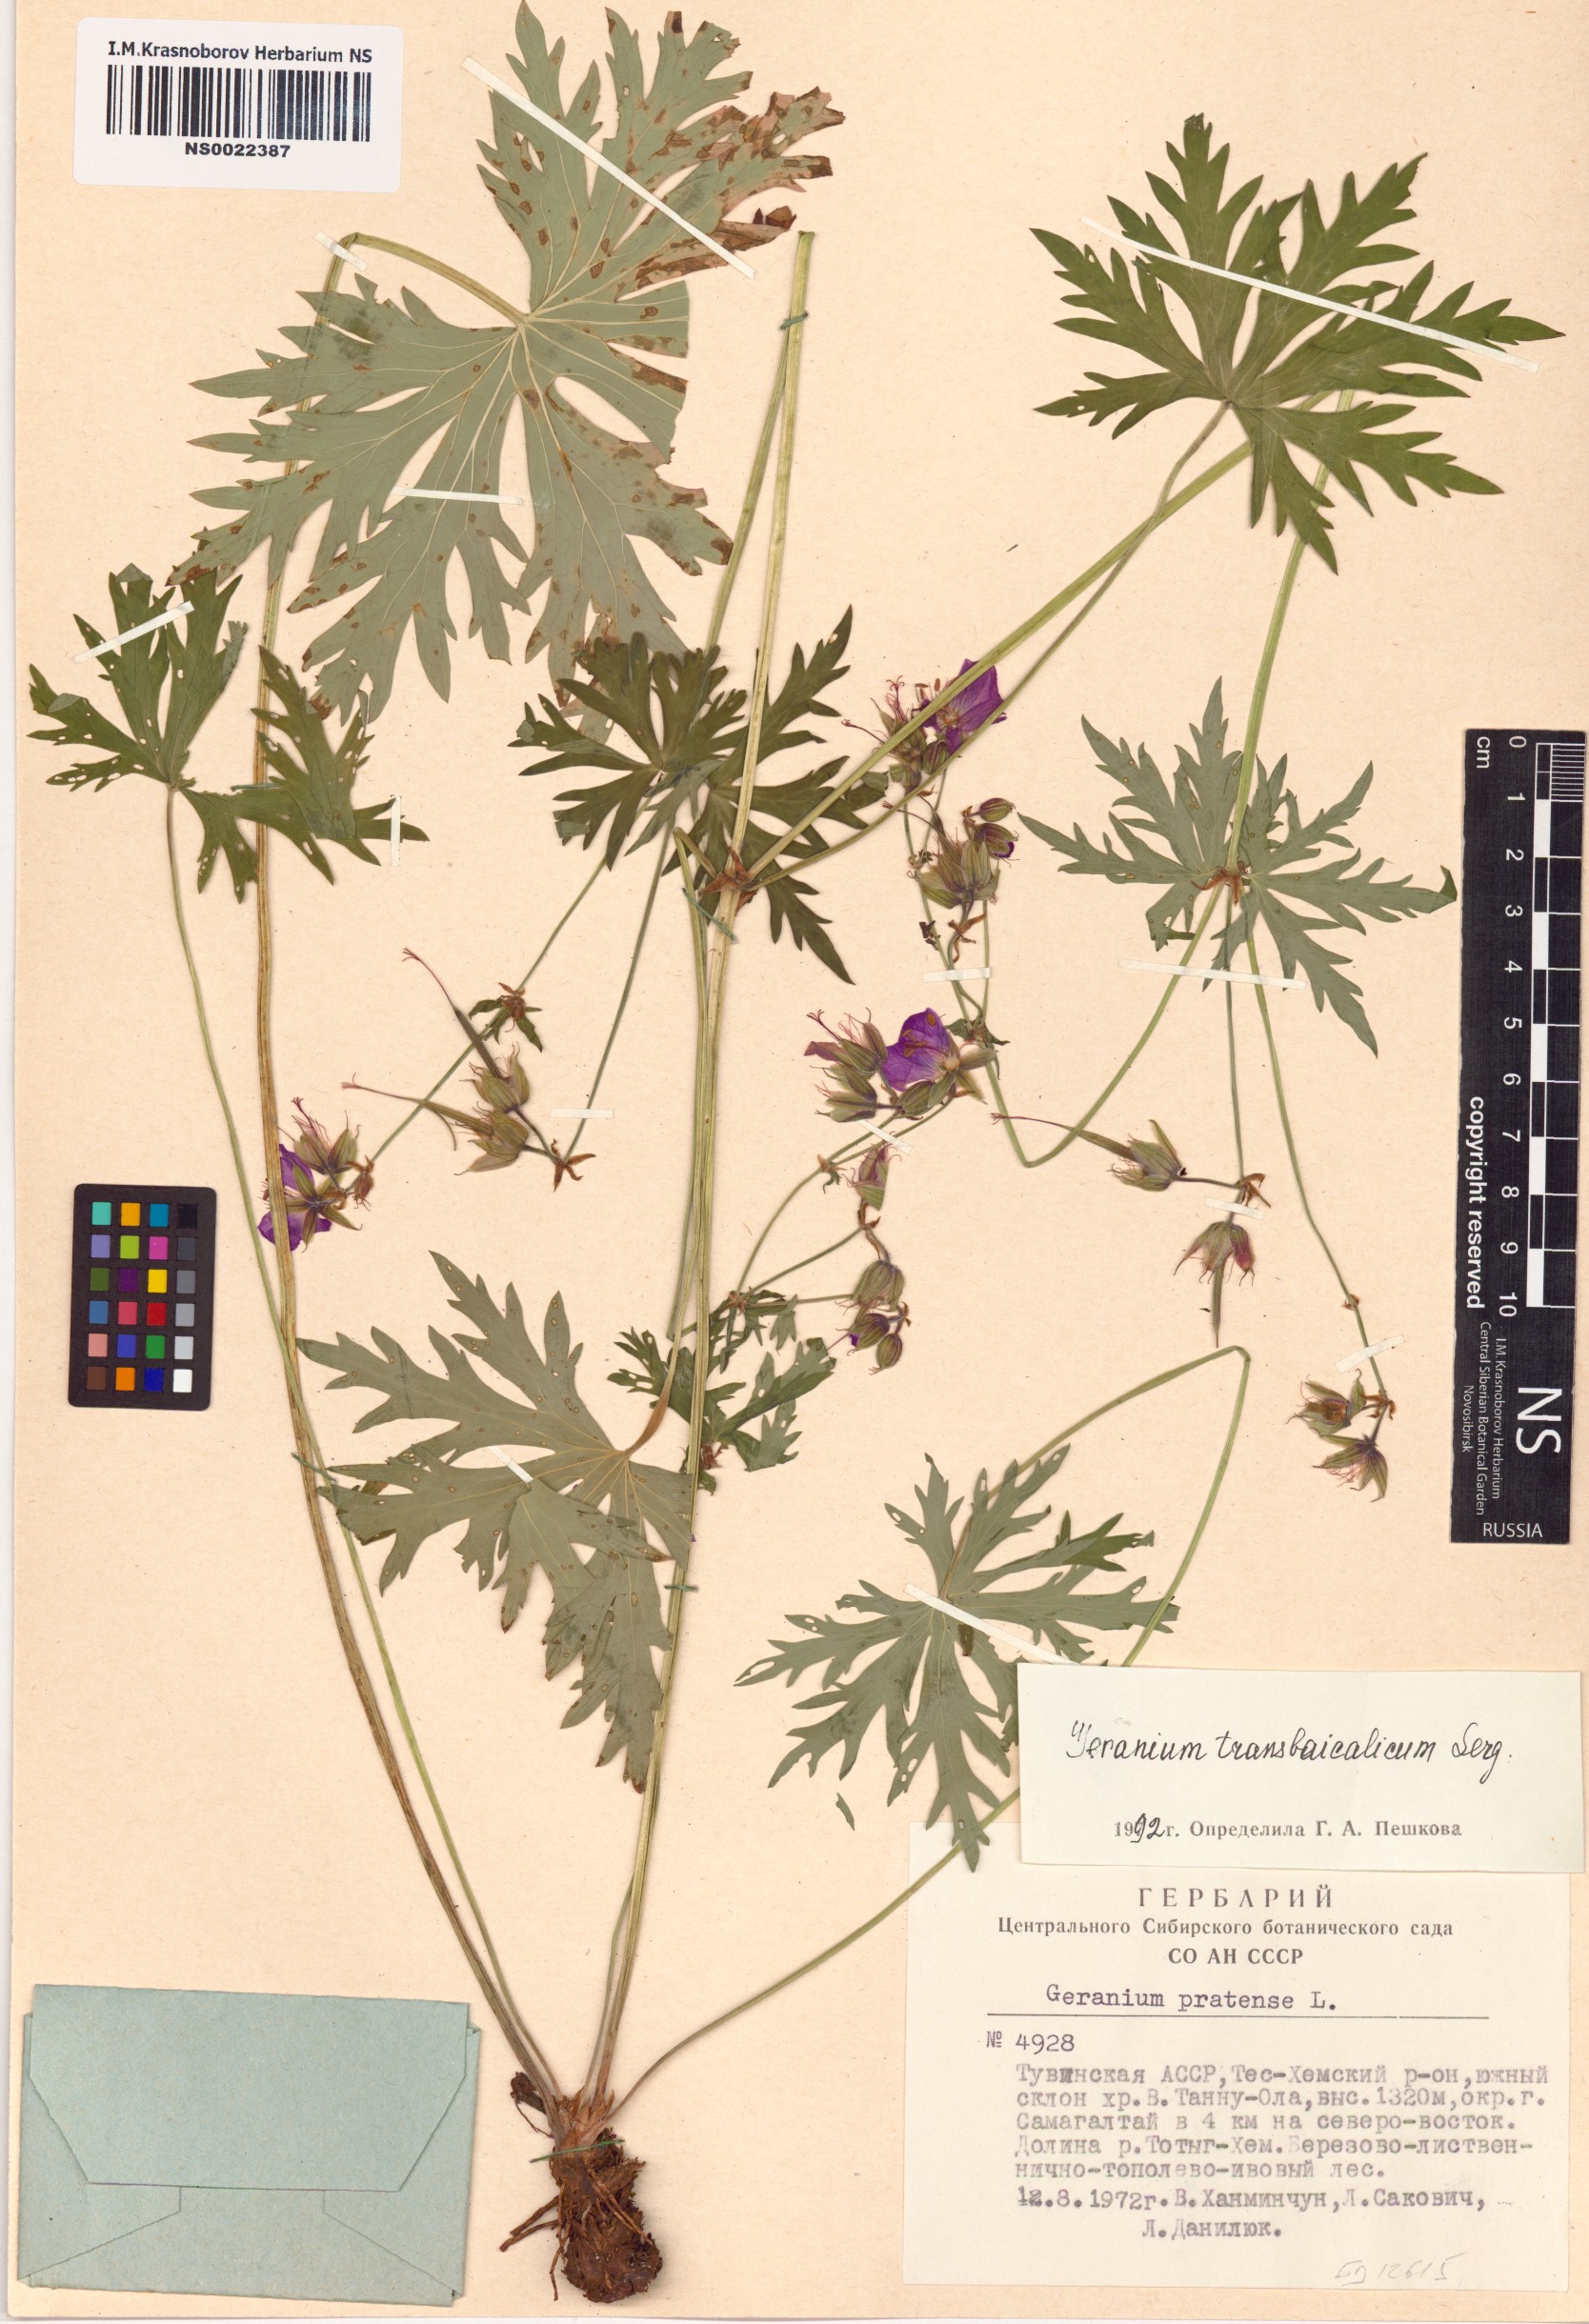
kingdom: Plantae
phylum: Tracheophyta
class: Magnoliopsida
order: Geraniales
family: Geraniaceae
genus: Geranium
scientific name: Geranium pratense
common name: Meadow crane's-bill
